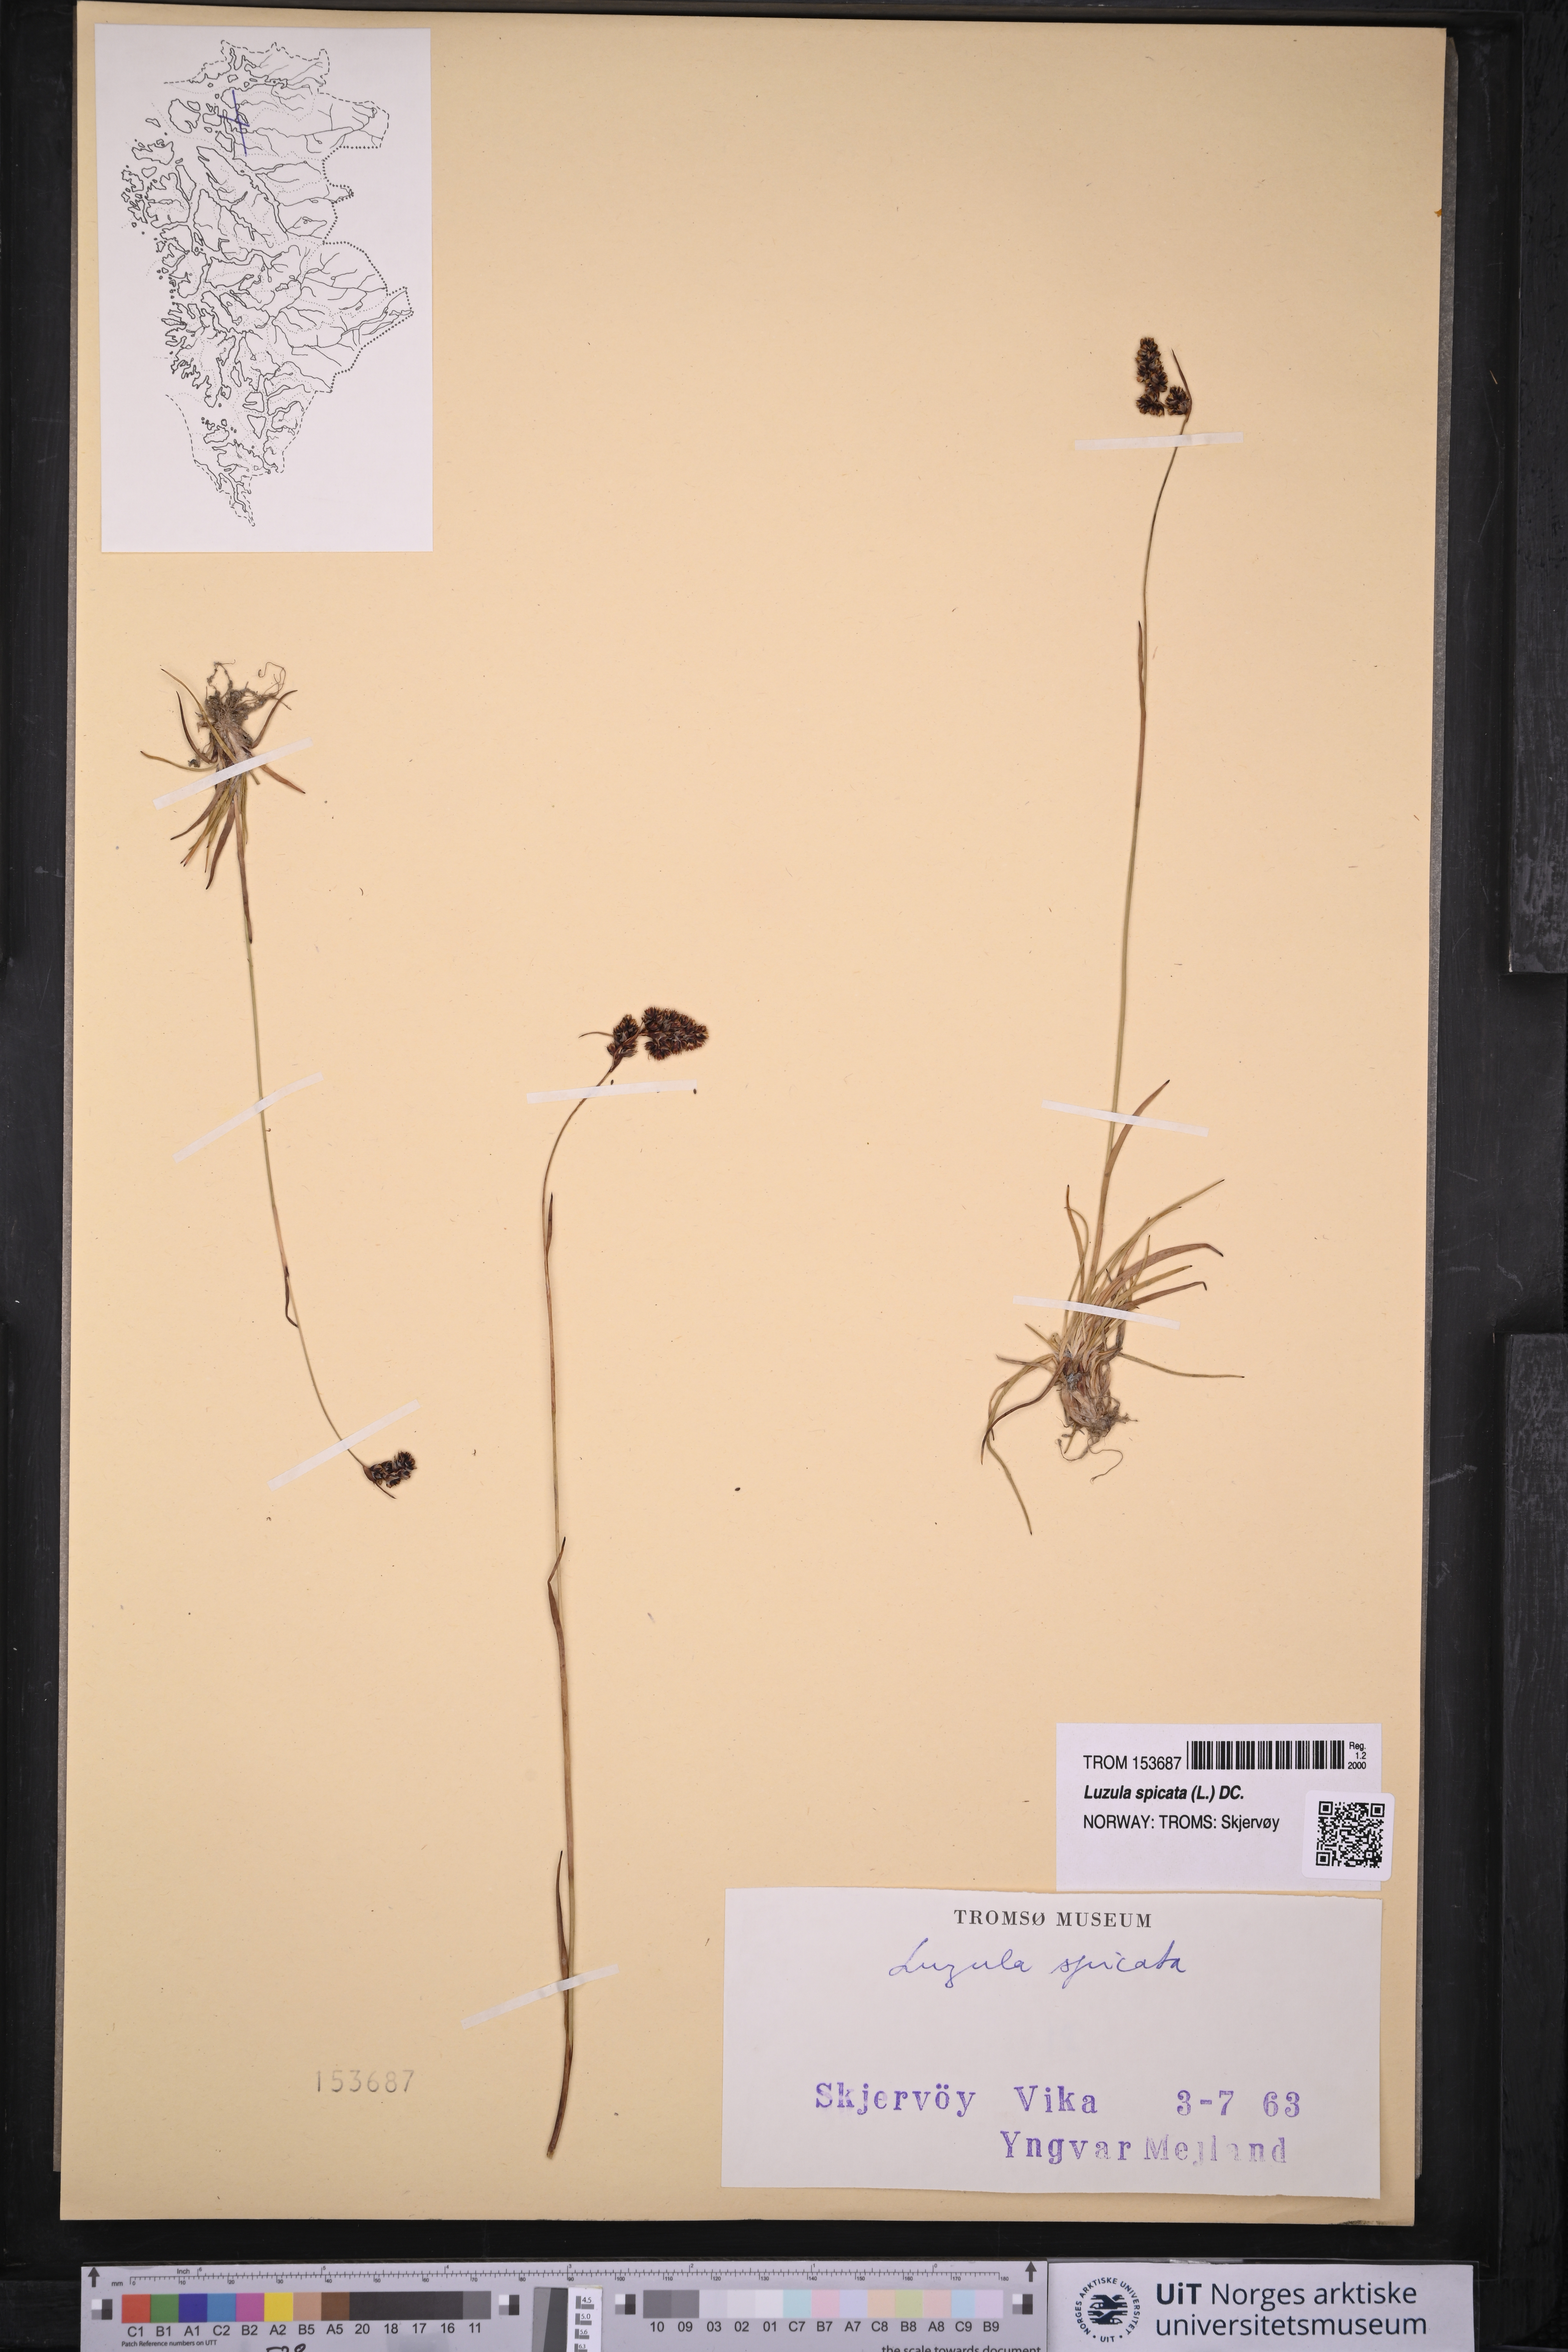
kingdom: Plantae
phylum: Tracheophyta
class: Liliopsida
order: Poales
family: Juncaceae
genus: Luzula
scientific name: Luzula spicata
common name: Spiked wood-rush
